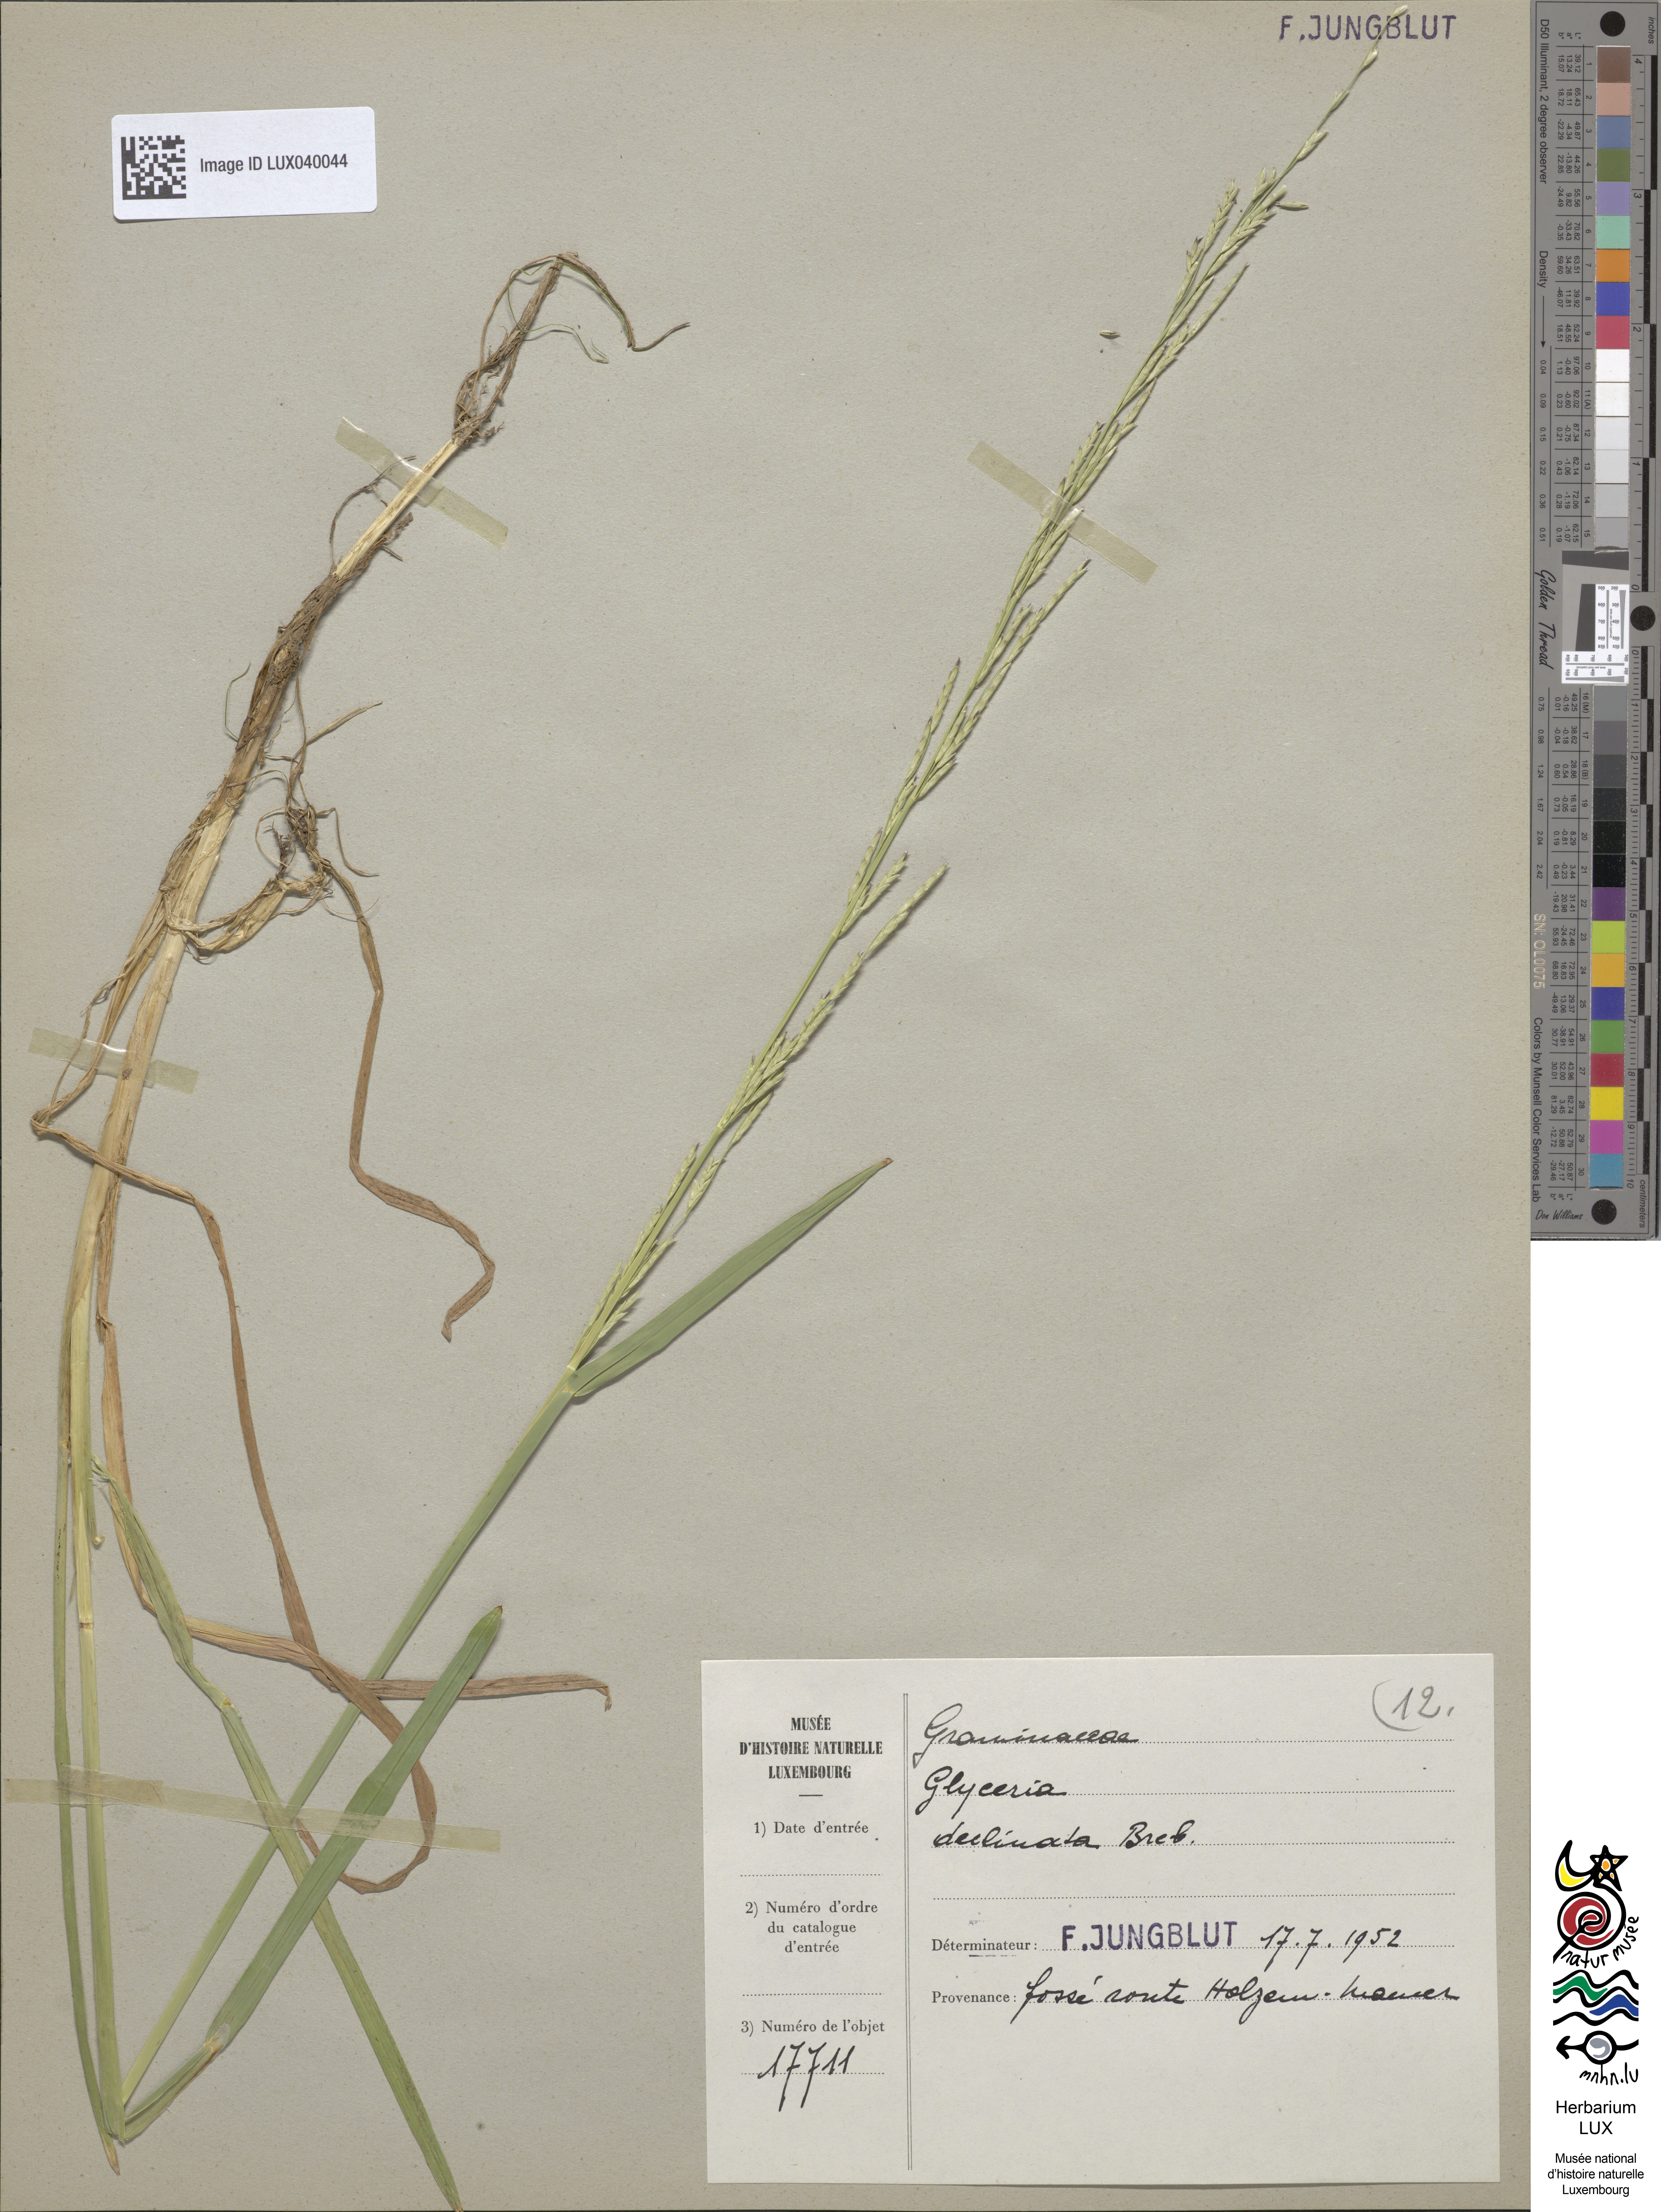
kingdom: Plantae
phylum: Tracheophyta
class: Liliopsida
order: Poales
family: Poaceae
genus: Glyceria
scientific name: Glyceria declinata
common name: Small sweet-grass
